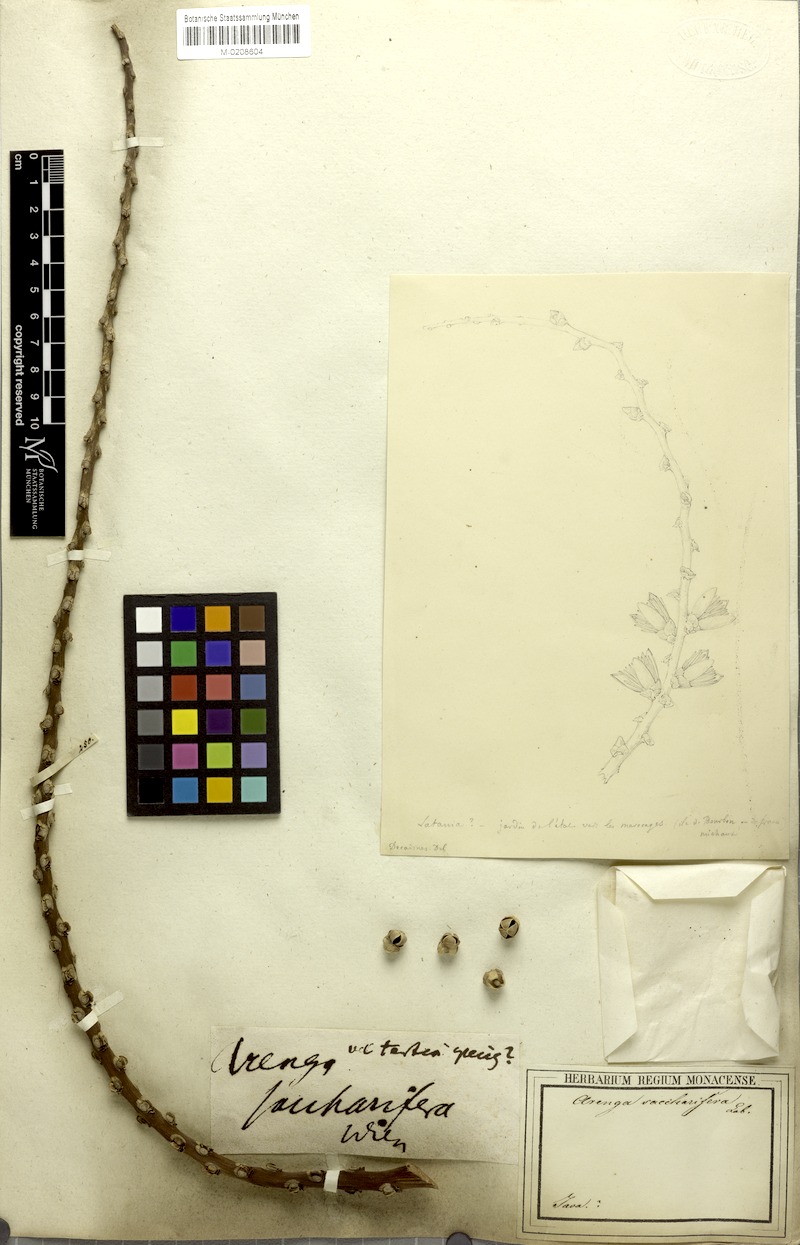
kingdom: Plantae
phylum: Tracheophyta
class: Liliopsida
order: Arecales
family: Arecaceae
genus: Arenga
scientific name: Arenga pinnata
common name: Black-fiber palm
